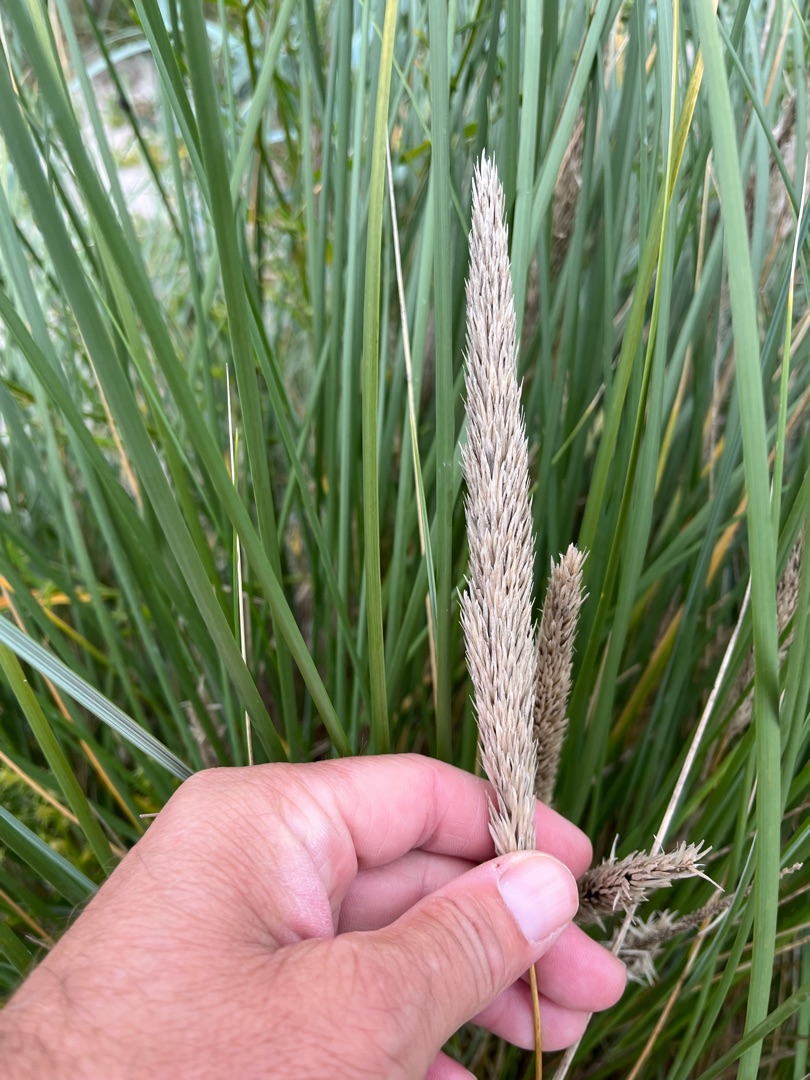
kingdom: Plantae
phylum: Tracheophyta
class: Liliopsida
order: Poales
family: Poaceae
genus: Calamagrostis
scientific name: Calamagrostis arenaria
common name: Sand-hjælme
